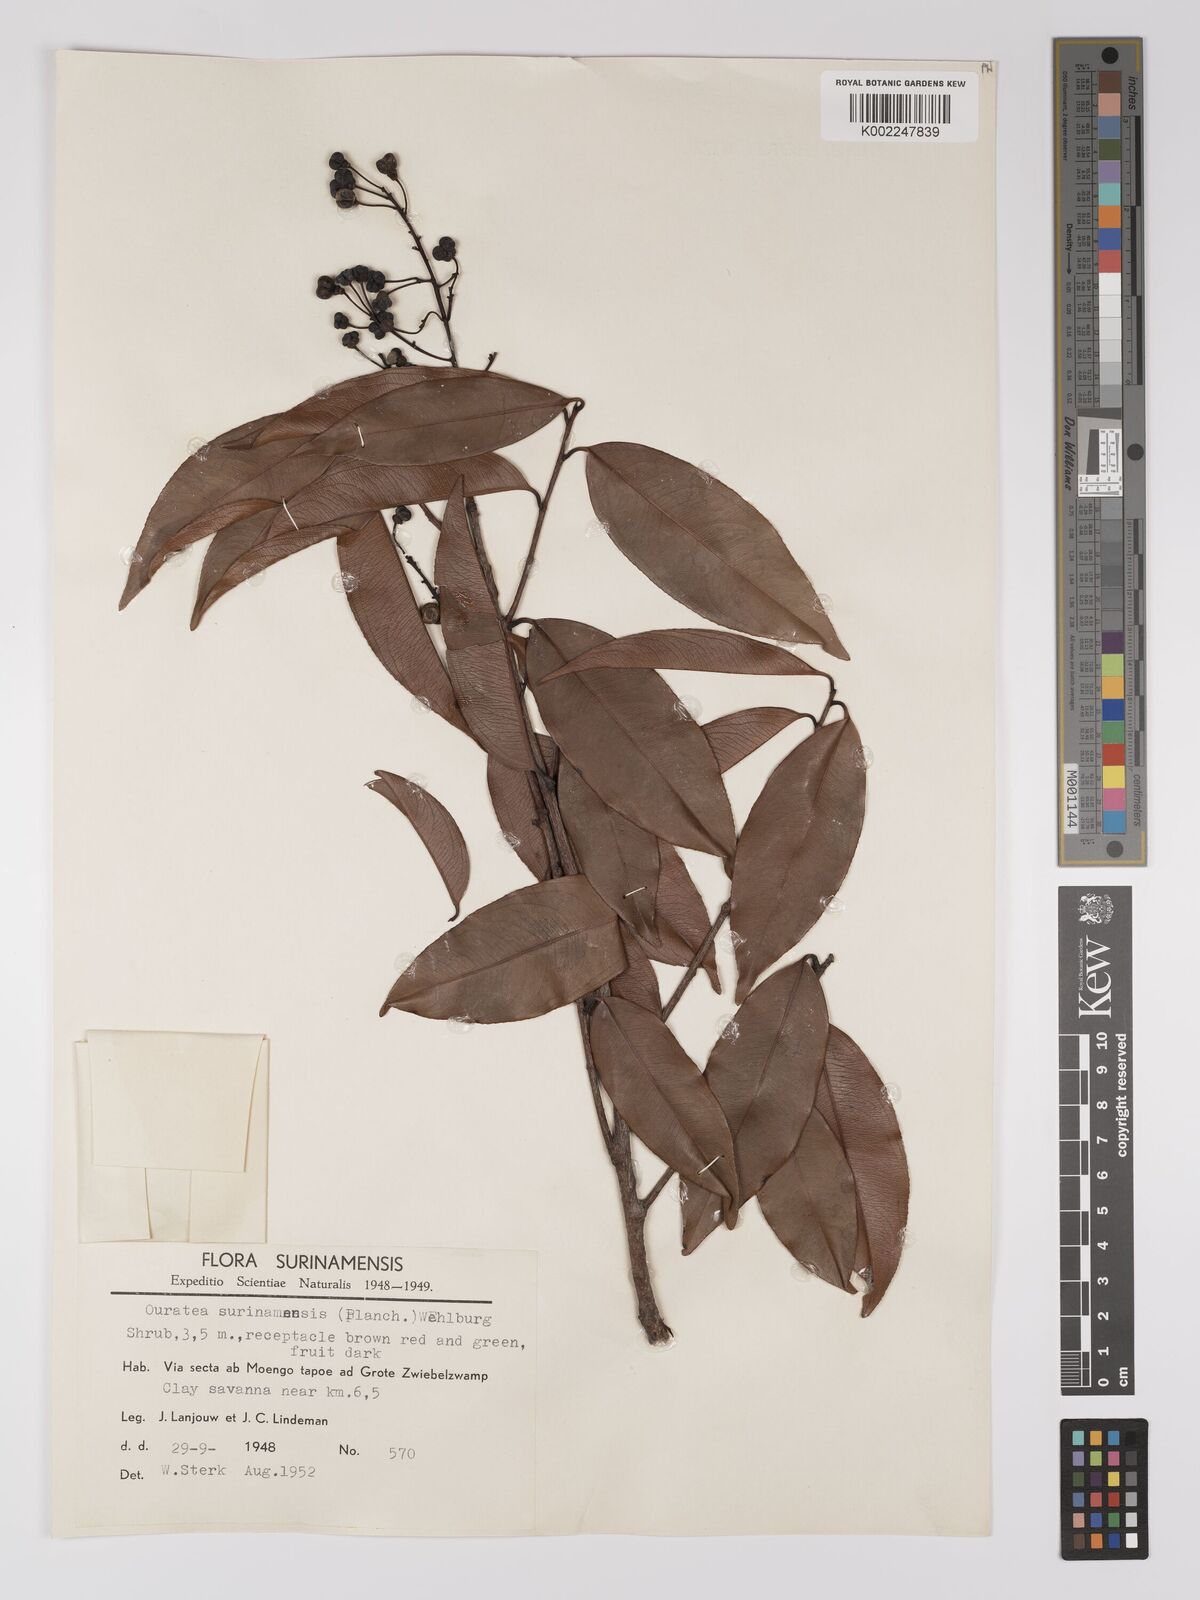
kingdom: Plantae
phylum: Tracheophyta
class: Magnoliopsida
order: Malpighiales
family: Ochnaceae
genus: Ouratea
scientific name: Ouratea cardiosperma
